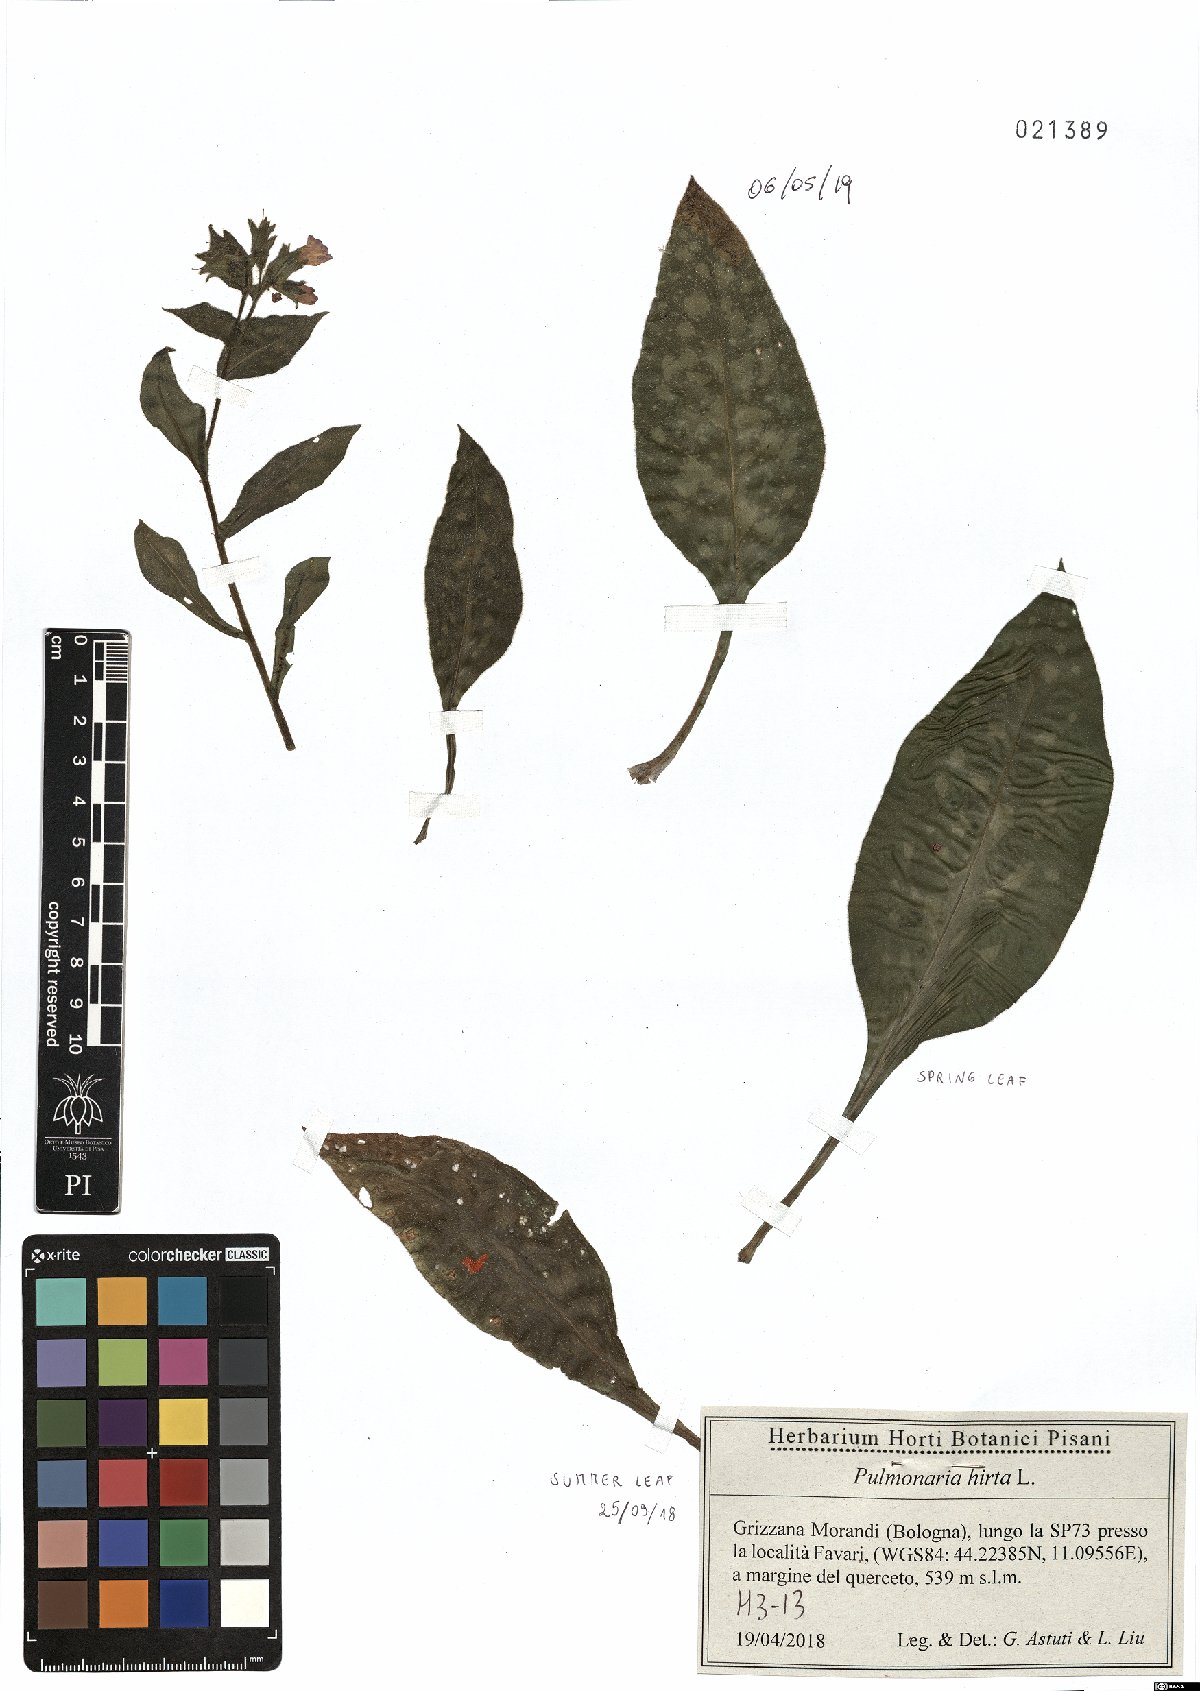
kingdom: Plantae
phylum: Tracheophyta
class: Magnoliopsida
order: Boraginales
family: Boraginaceae
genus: Pulmonaria
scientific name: Pulmonaria hirta
